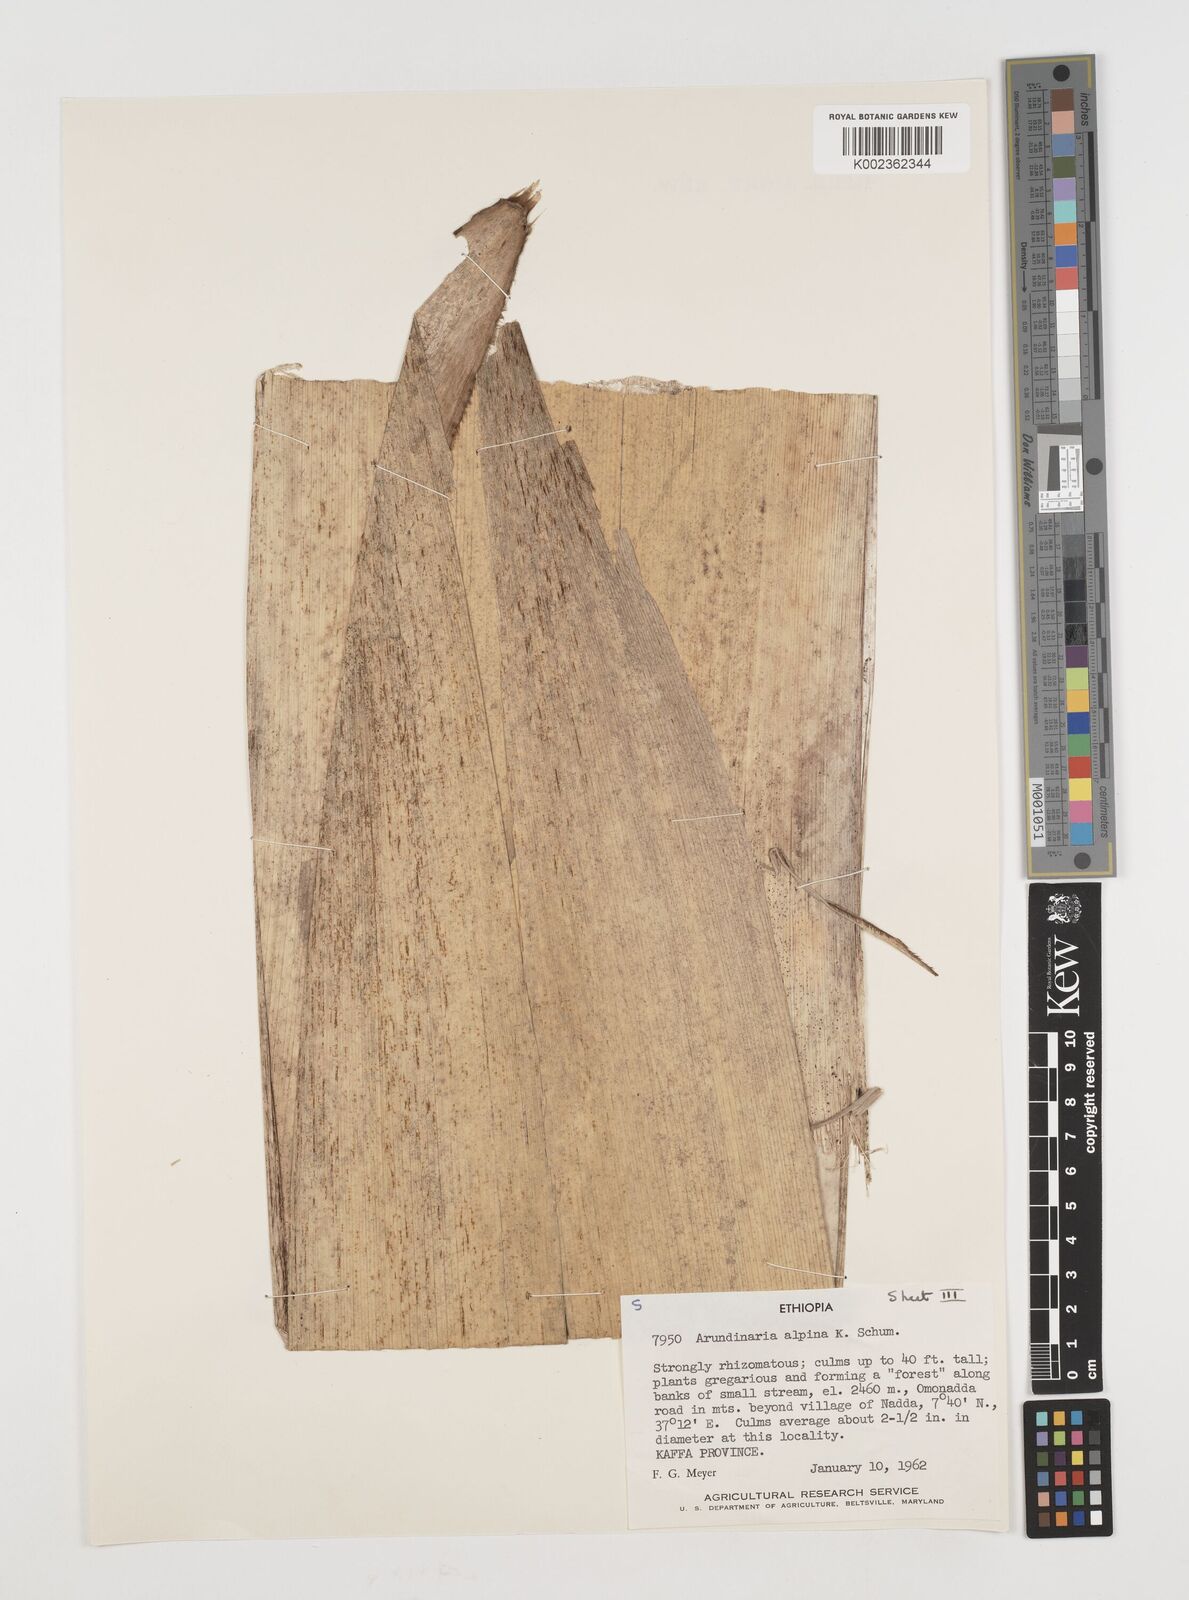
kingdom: Plantae
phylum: Tracheophyta
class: Liliopsida
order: Poales
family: Poaceae
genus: Oldeania
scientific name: Oldeania alpina
